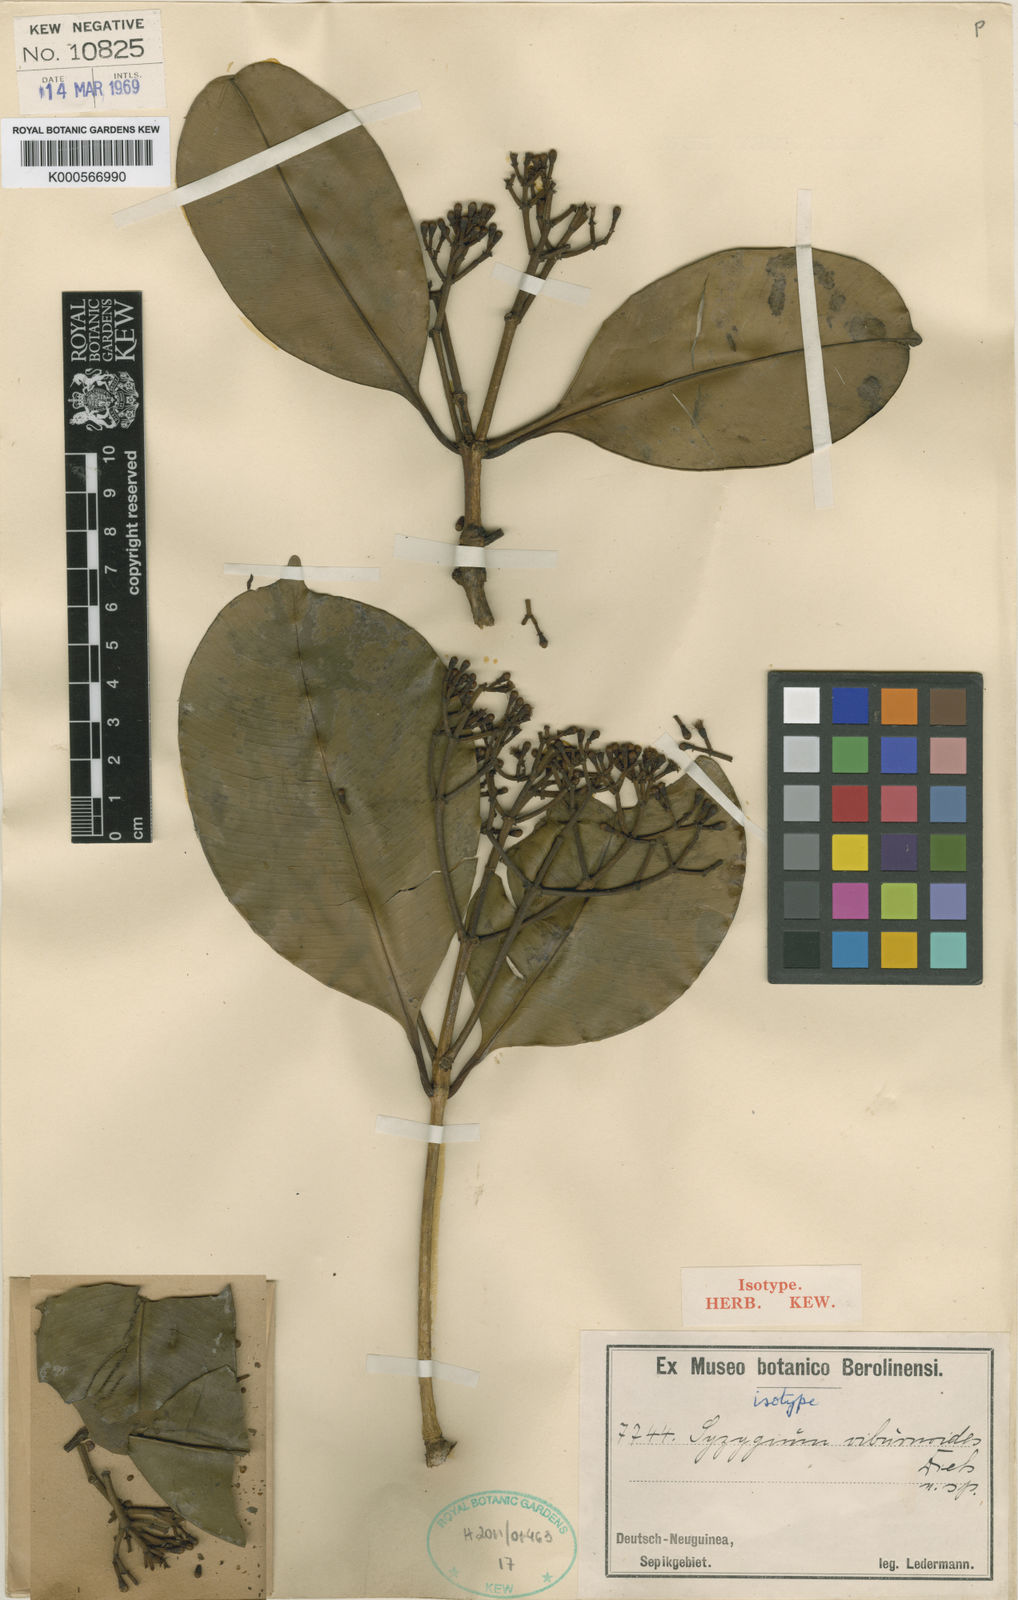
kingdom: Plantae
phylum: Tracheophyta
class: Magnoliopsida
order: Myrtales
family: Myrtaceae
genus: Syzygium
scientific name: Syzygium viburnoides
